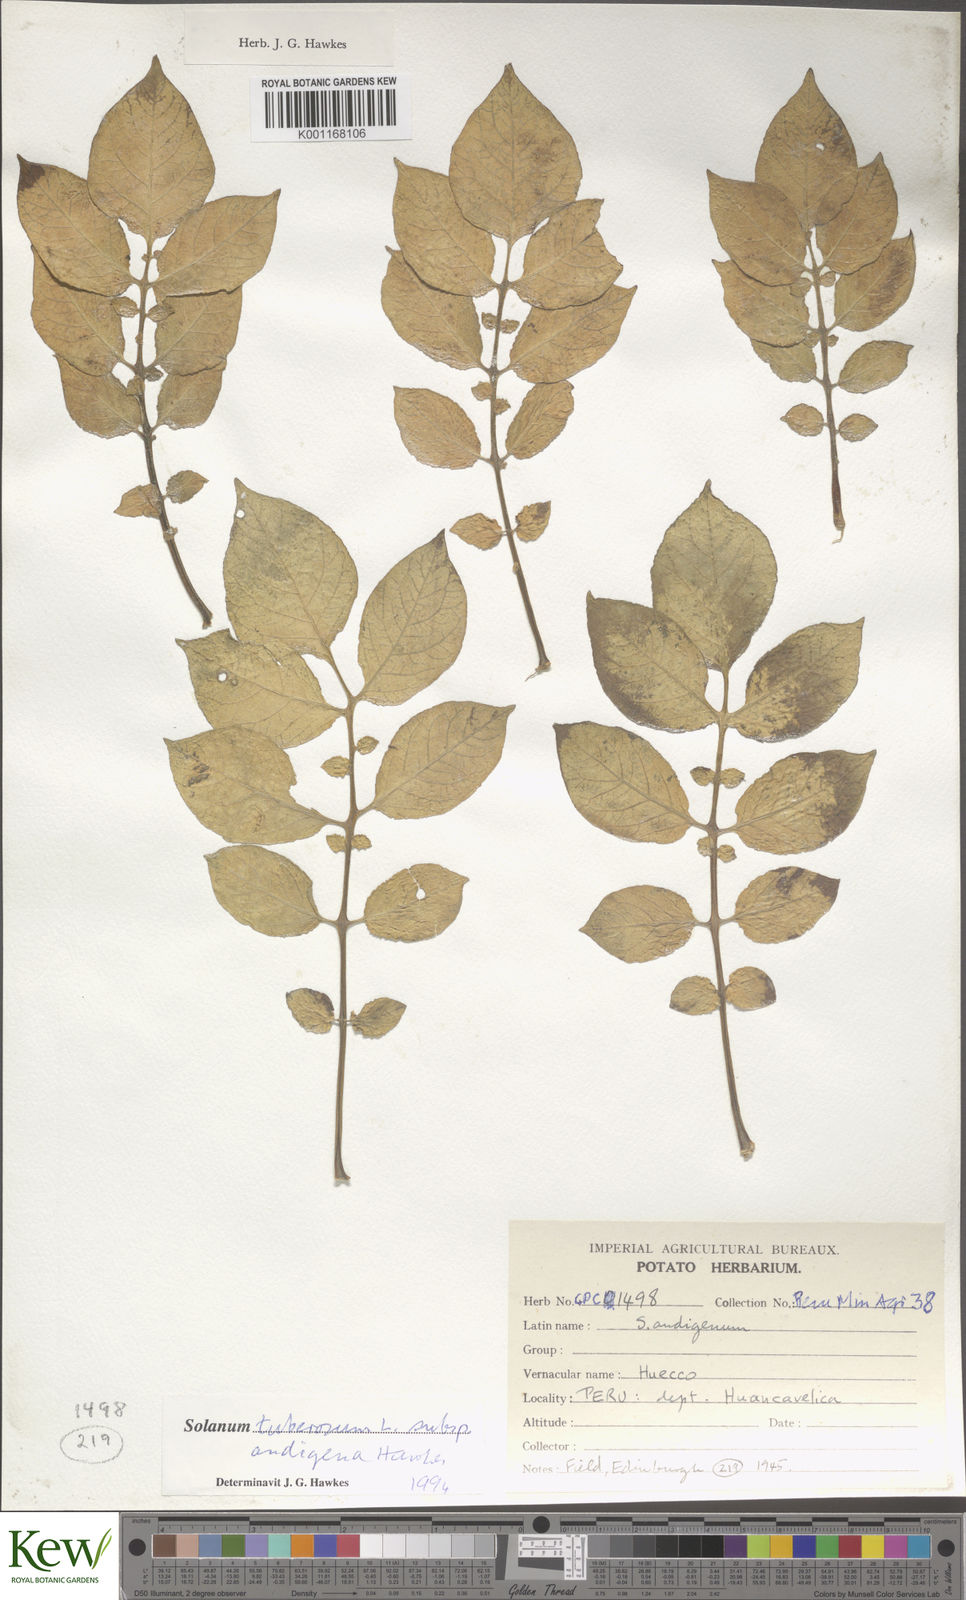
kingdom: Plantae
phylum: Tracheophyta
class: Magnoliopsida
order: Solanales
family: Solanaceae
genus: Solanum
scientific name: Solanum tuberosum
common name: Potato
